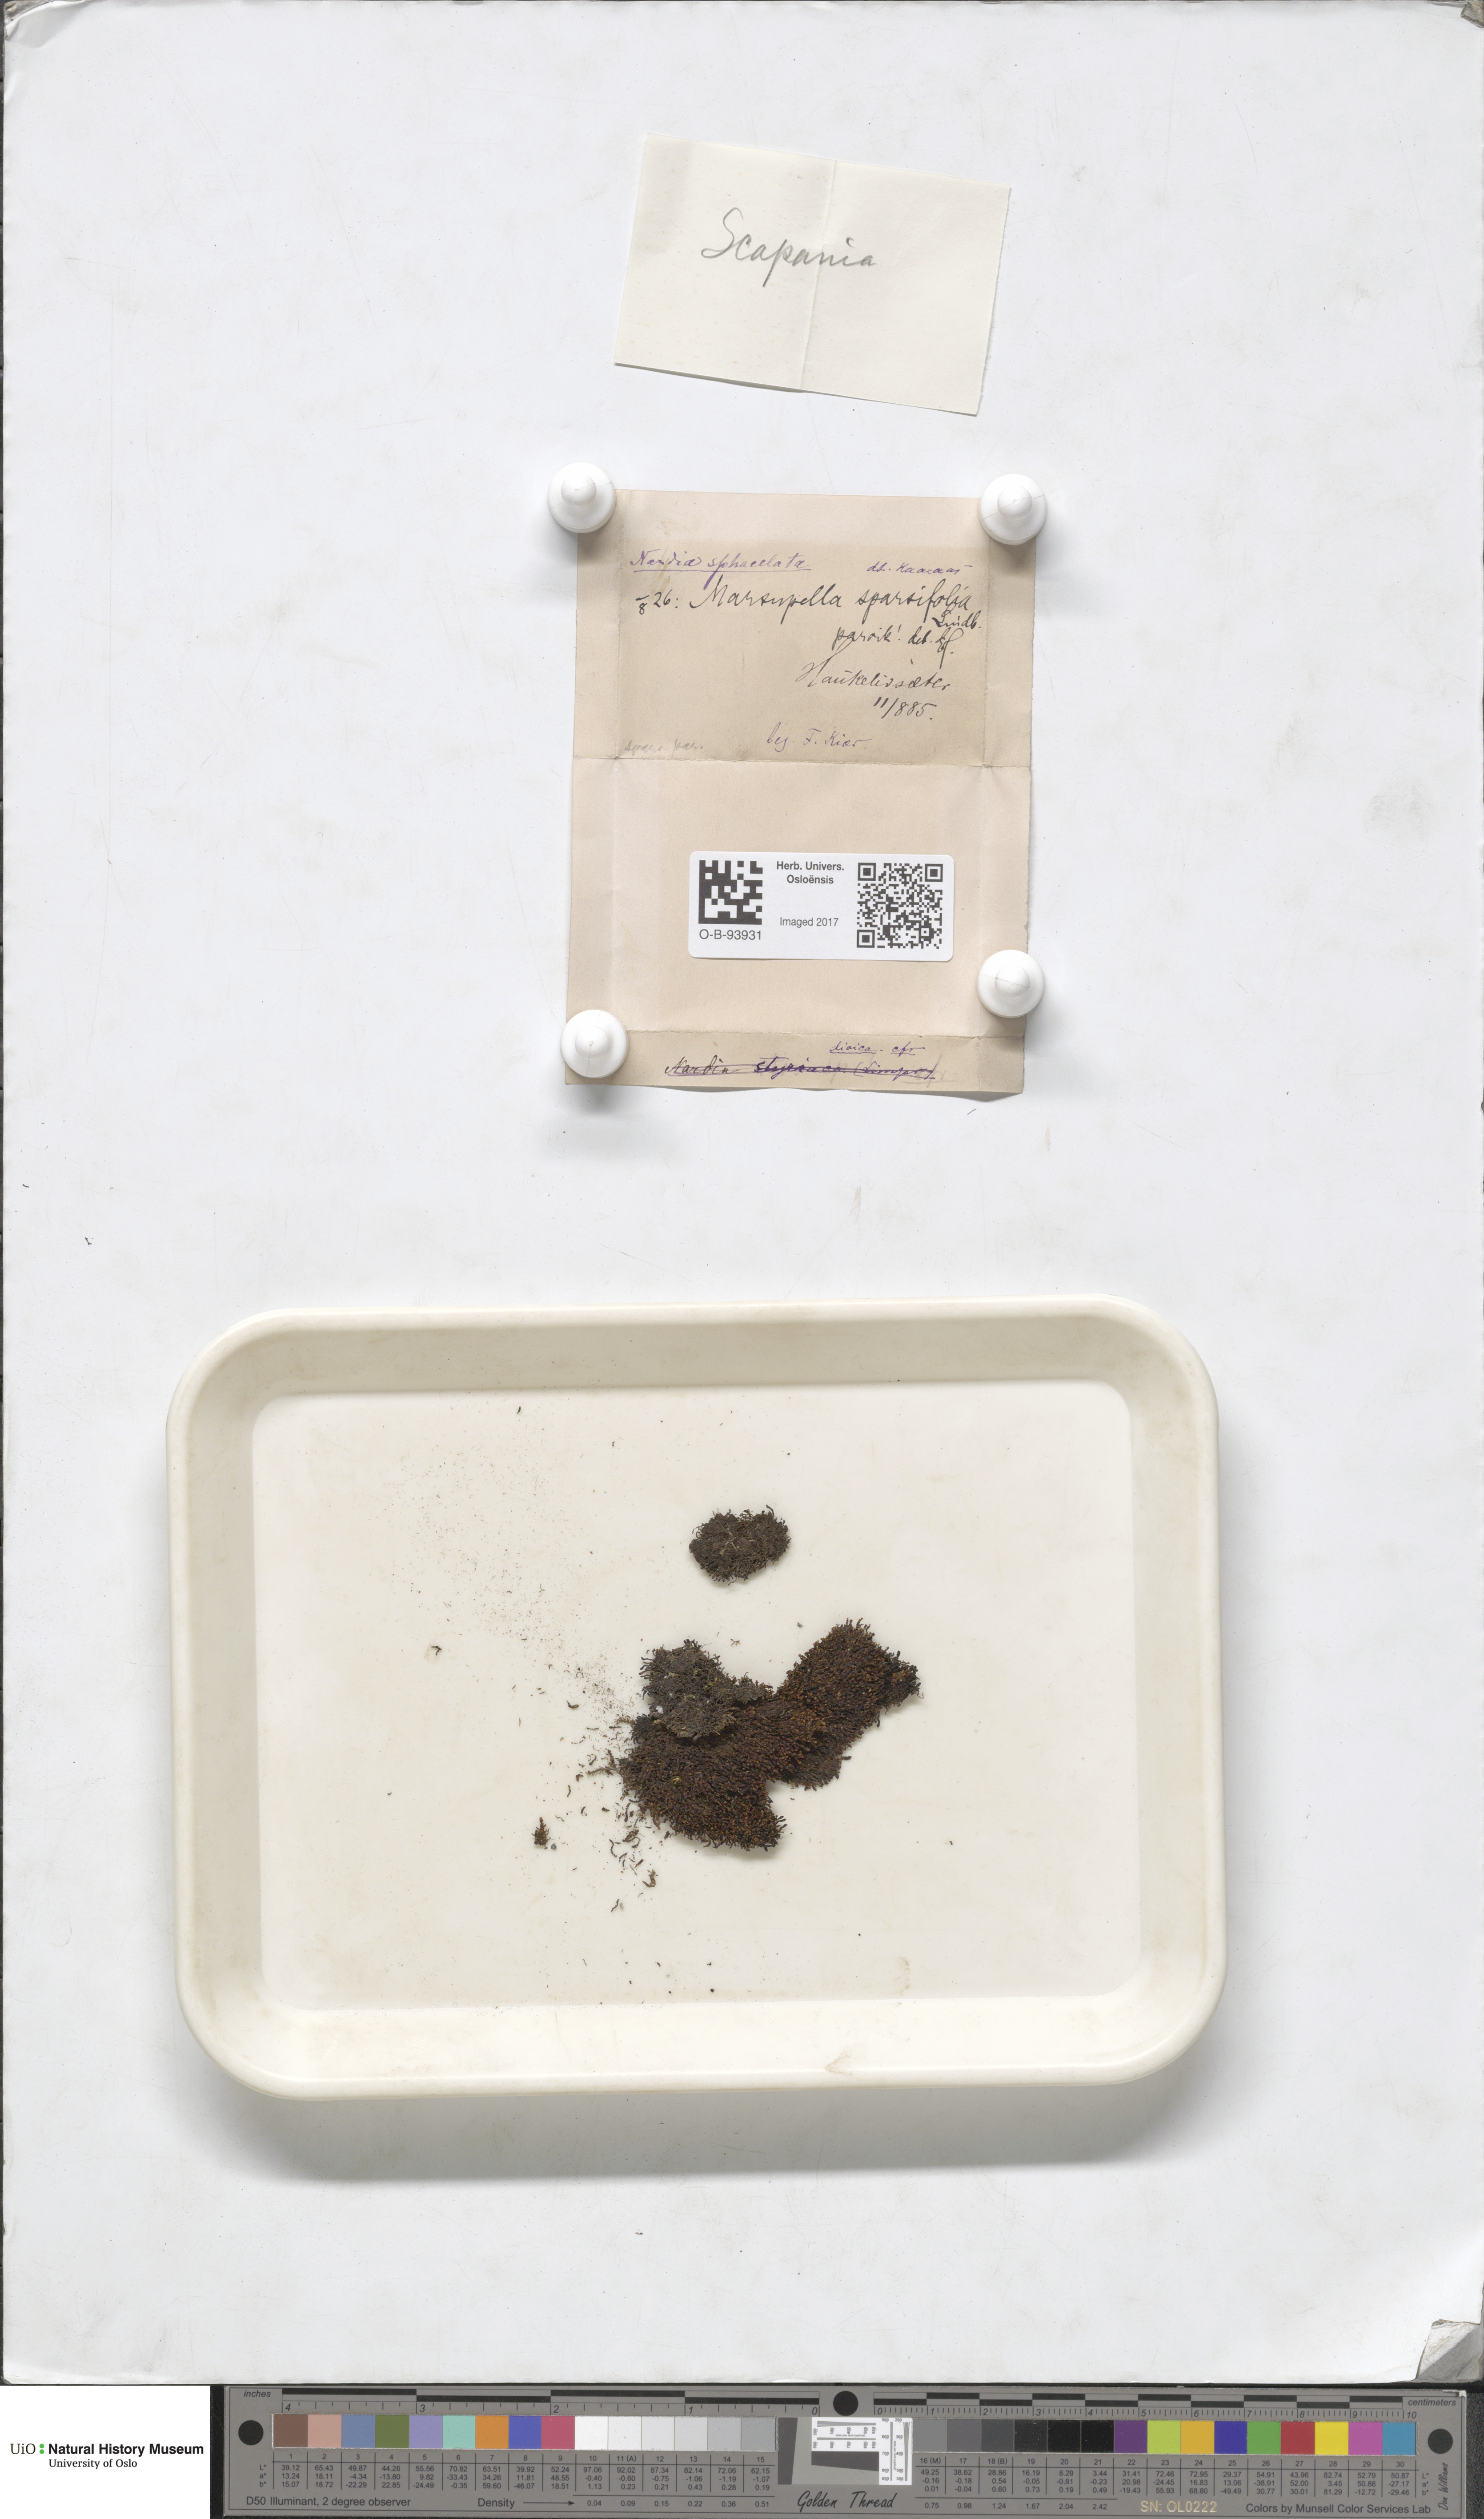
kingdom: Plantae
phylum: Marchantiophyta
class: Jungermanniopsida
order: Jungermanniales
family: Gymnomitriaceae
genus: Marsupella
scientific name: Marsupella sparsifolia
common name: Rounded rustwort
